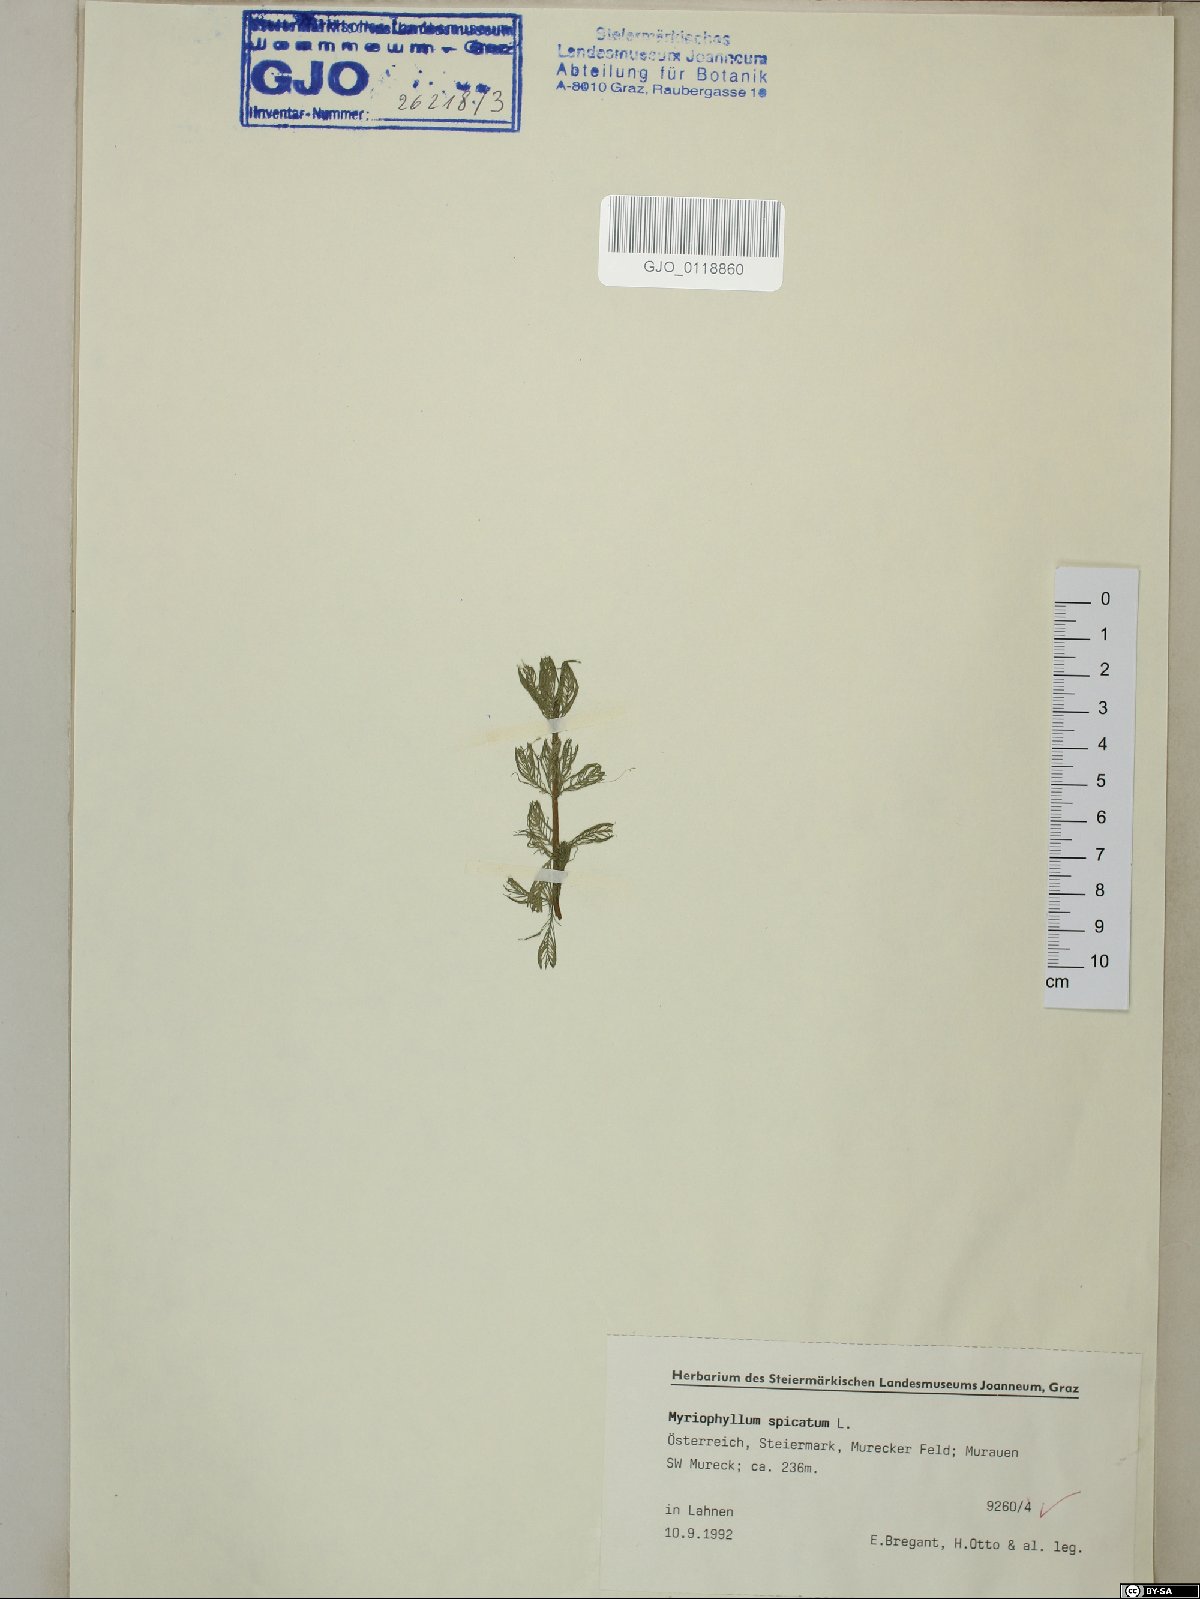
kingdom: Plantae
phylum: Tracheophyta
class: Magnoliopsida
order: Saxifragales
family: Haloragaceae
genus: Myriophyllum
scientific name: Myriophyllum spicatum
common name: Spiked water-milfoil
